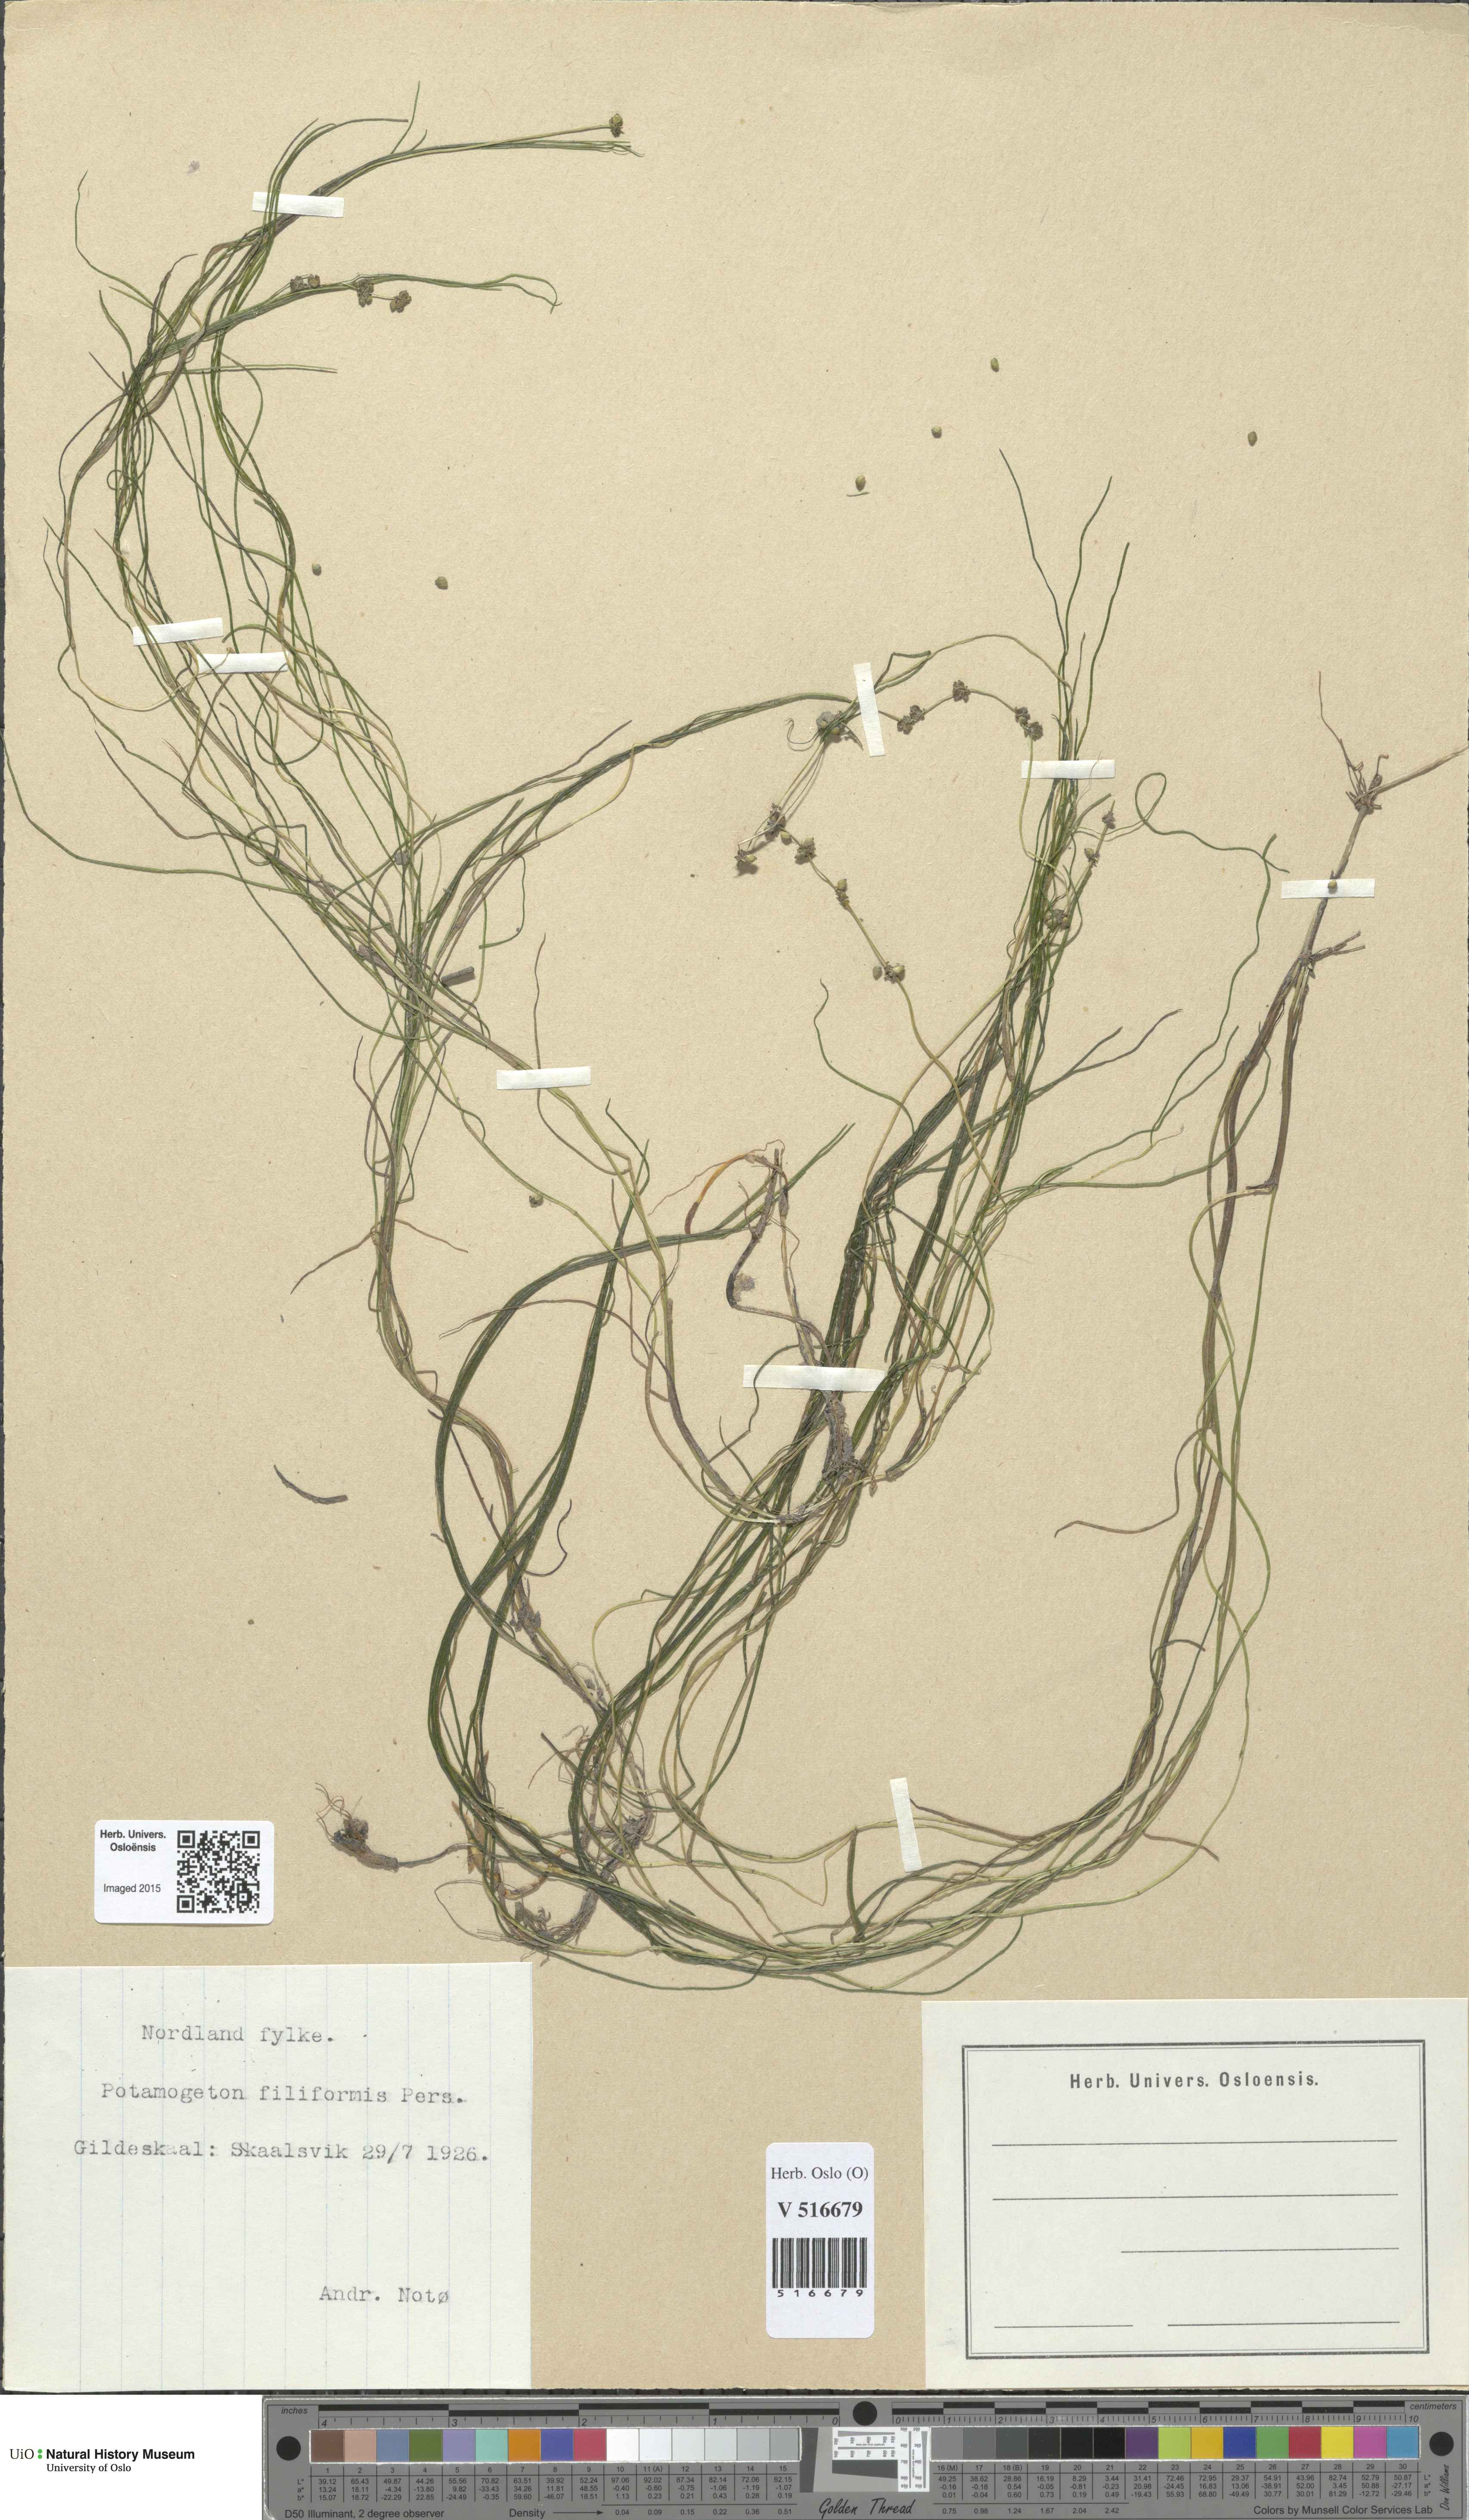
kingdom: Plantae
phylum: Tracheophyta
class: Liliopsida
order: Alismatales
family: Potamogetonaceae
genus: Stuckenia
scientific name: Stuckenia filiformis
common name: Alpine thread-leaved pondweed
